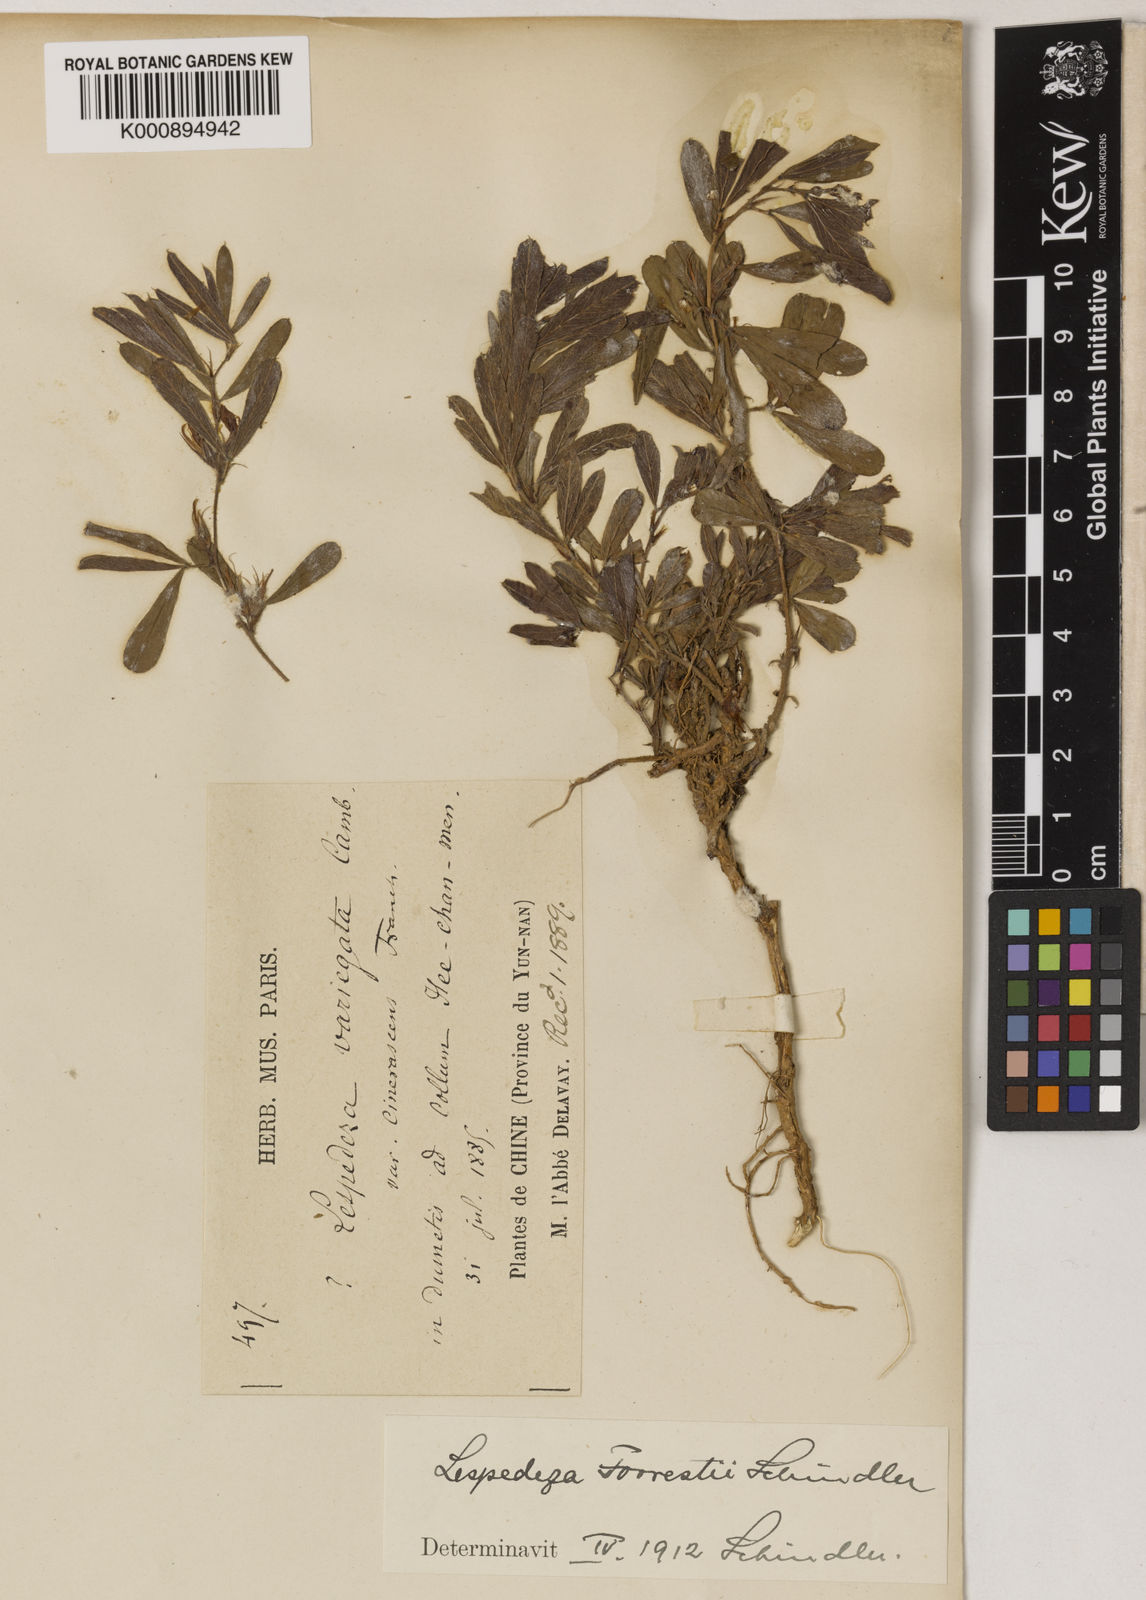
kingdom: Plantae
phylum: Tracheophyta
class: Magnoliopsida
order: Fabales
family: Fabaceae
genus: Lespedeza
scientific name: Lespedeza forrestii
